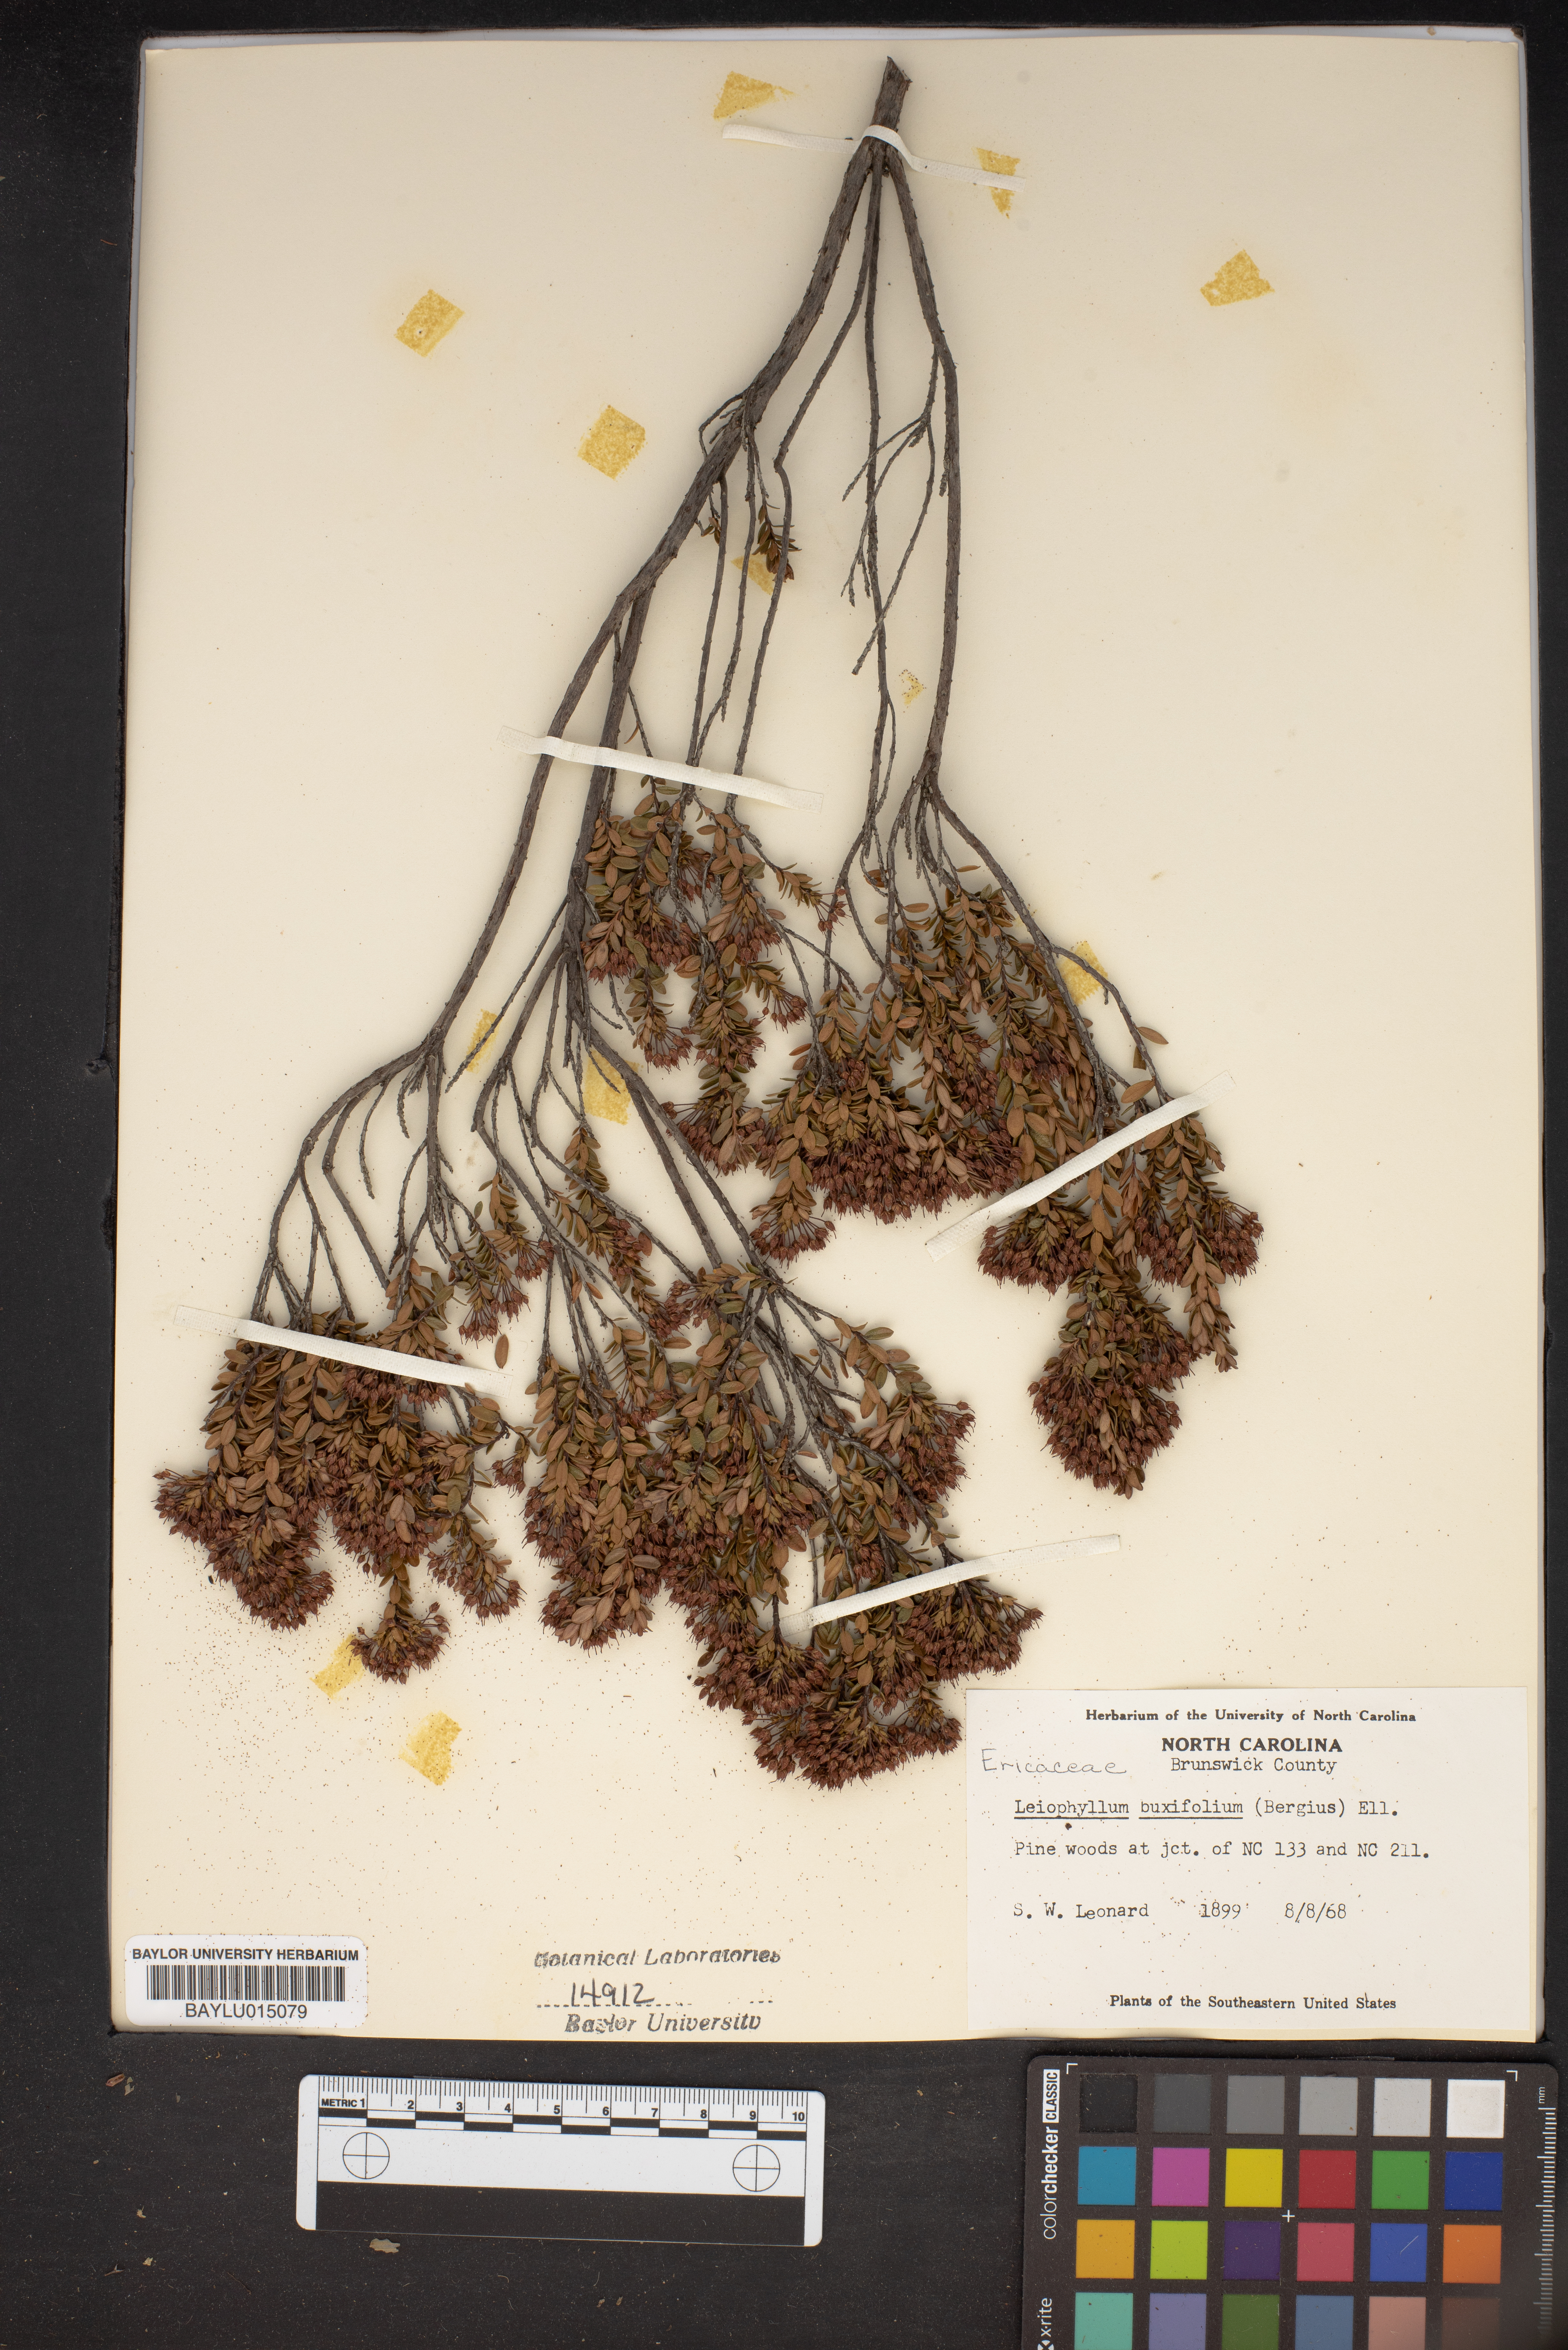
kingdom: Plantae
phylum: Tracheophyta
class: Magnoliopsida
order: Ericales
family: Ericaceae
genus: Kalmia
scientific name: Kalmia buxifolia
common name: Sandmyrtle
